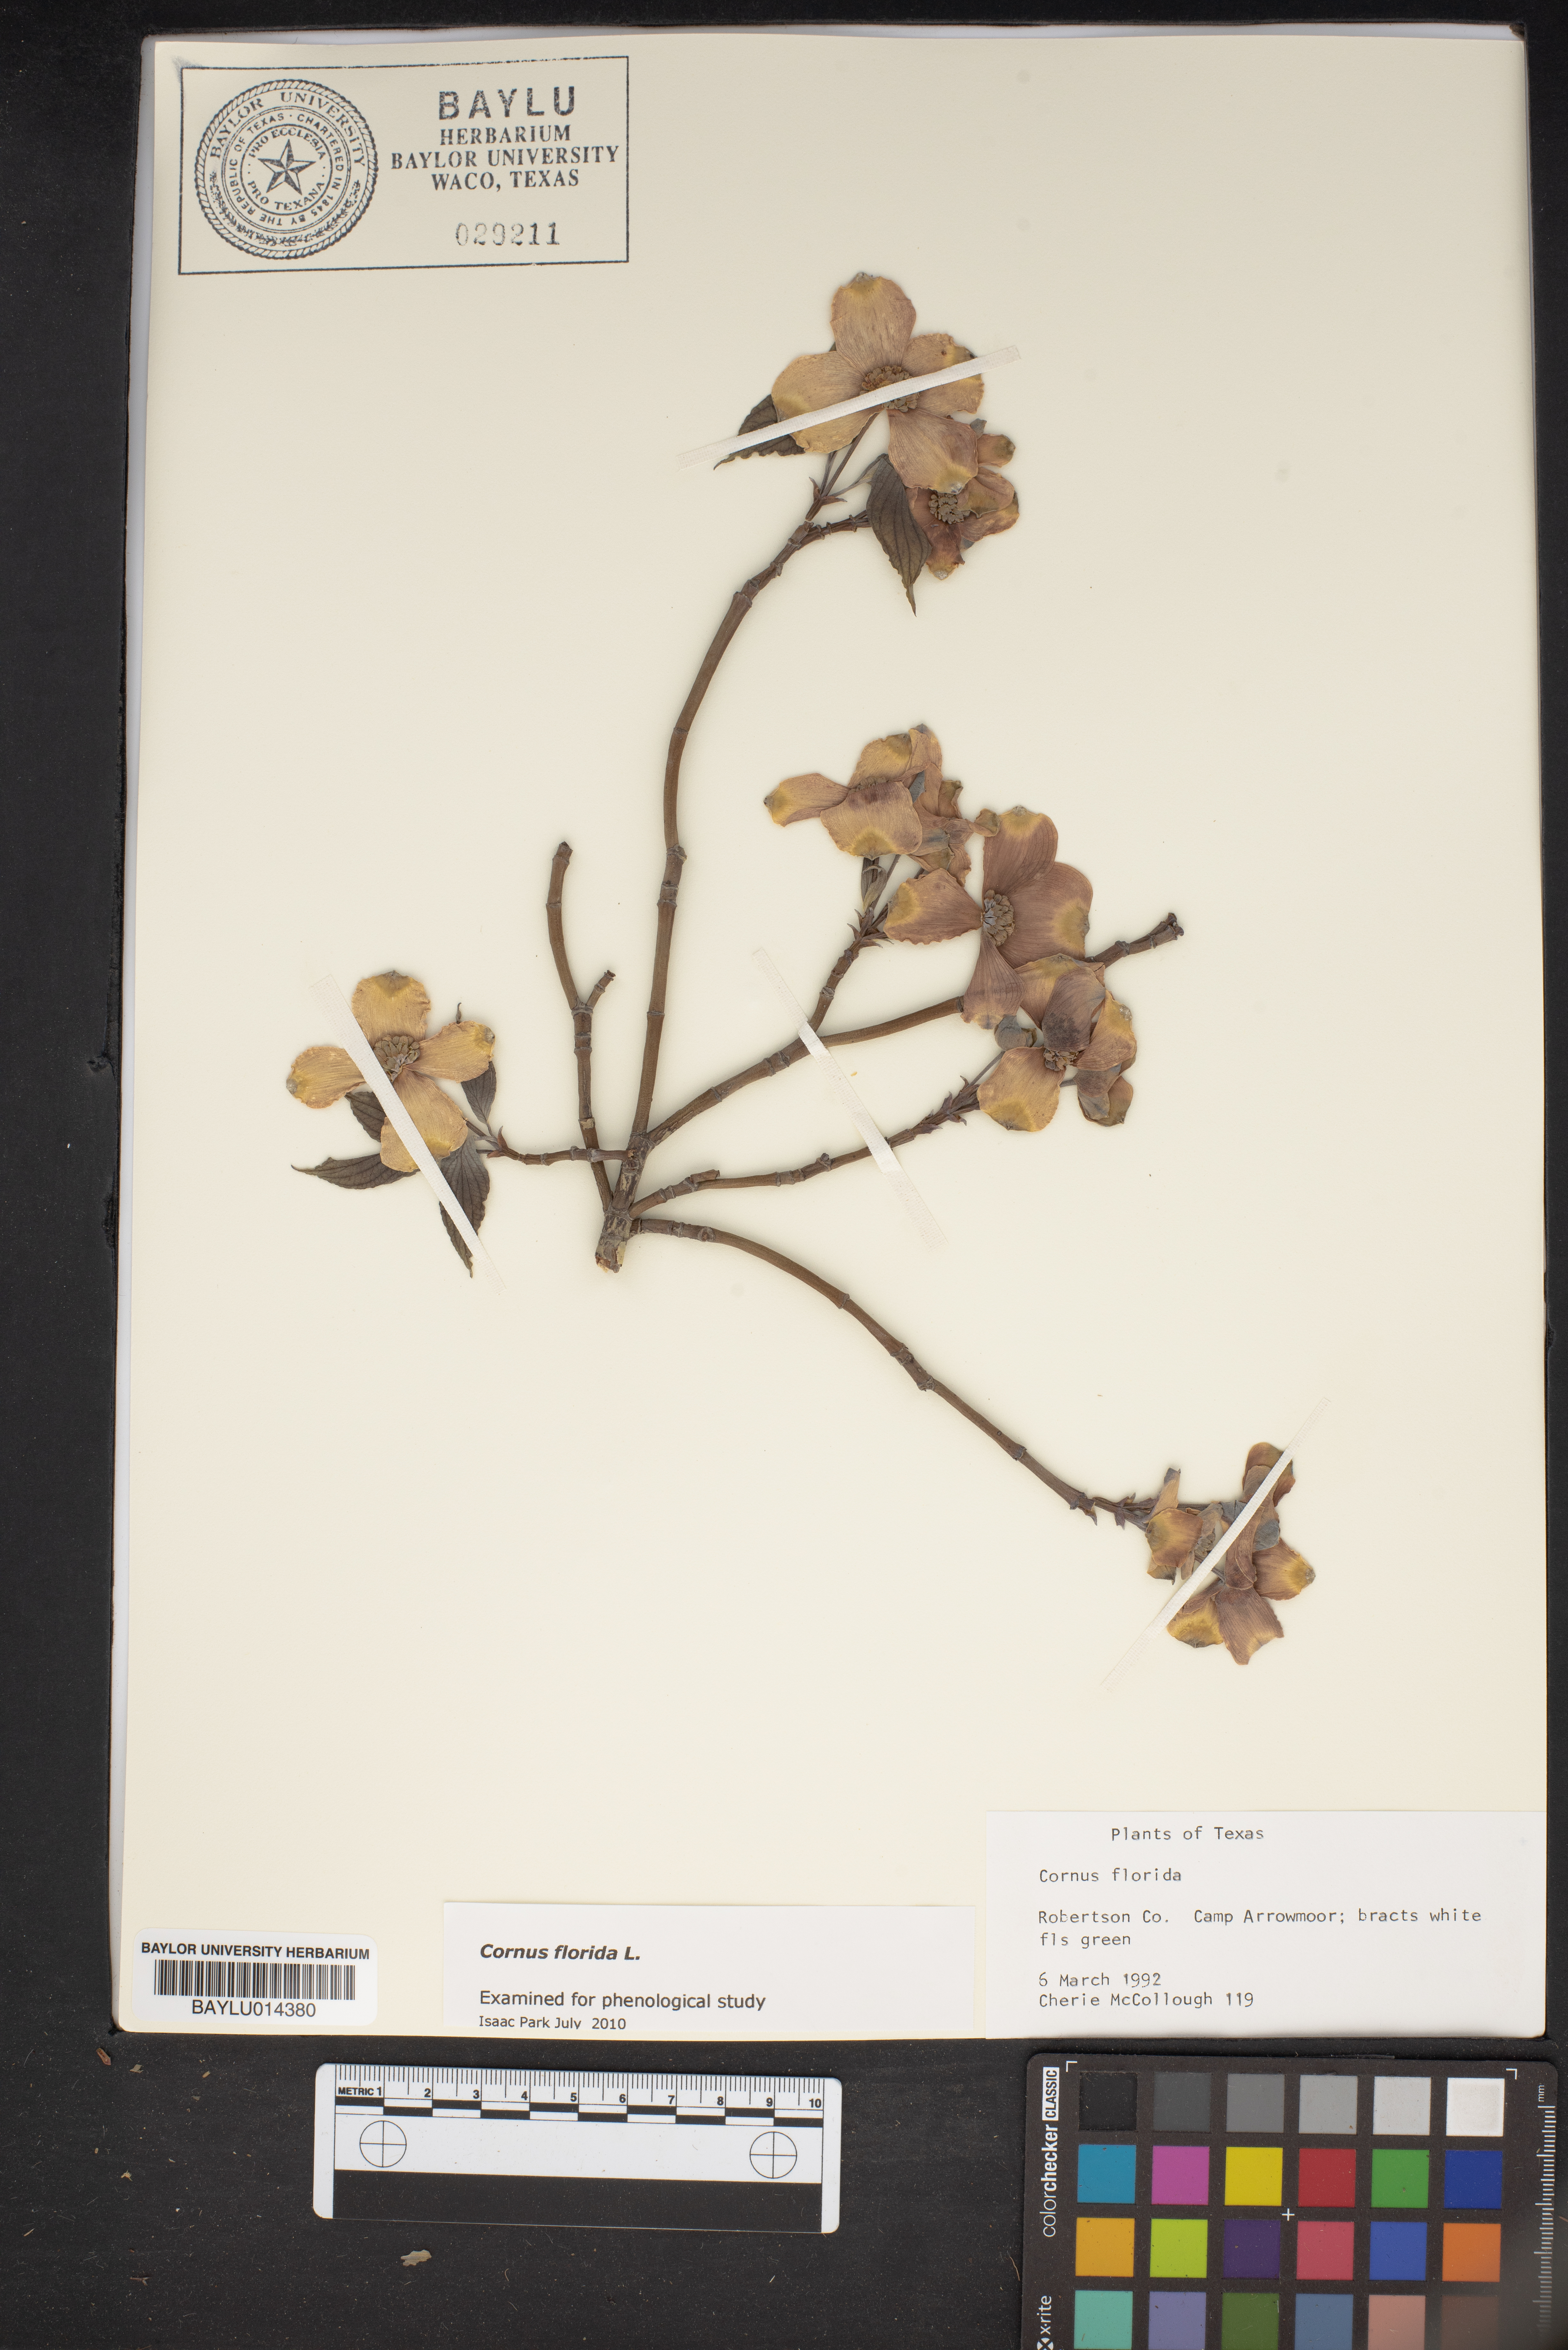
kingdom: Plantae
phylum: Tracheophyta
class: Magnoliopsida
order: Cornales
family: Cornaceae
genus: Cornus
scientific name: Cornus florida
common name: Flowering dogwood
